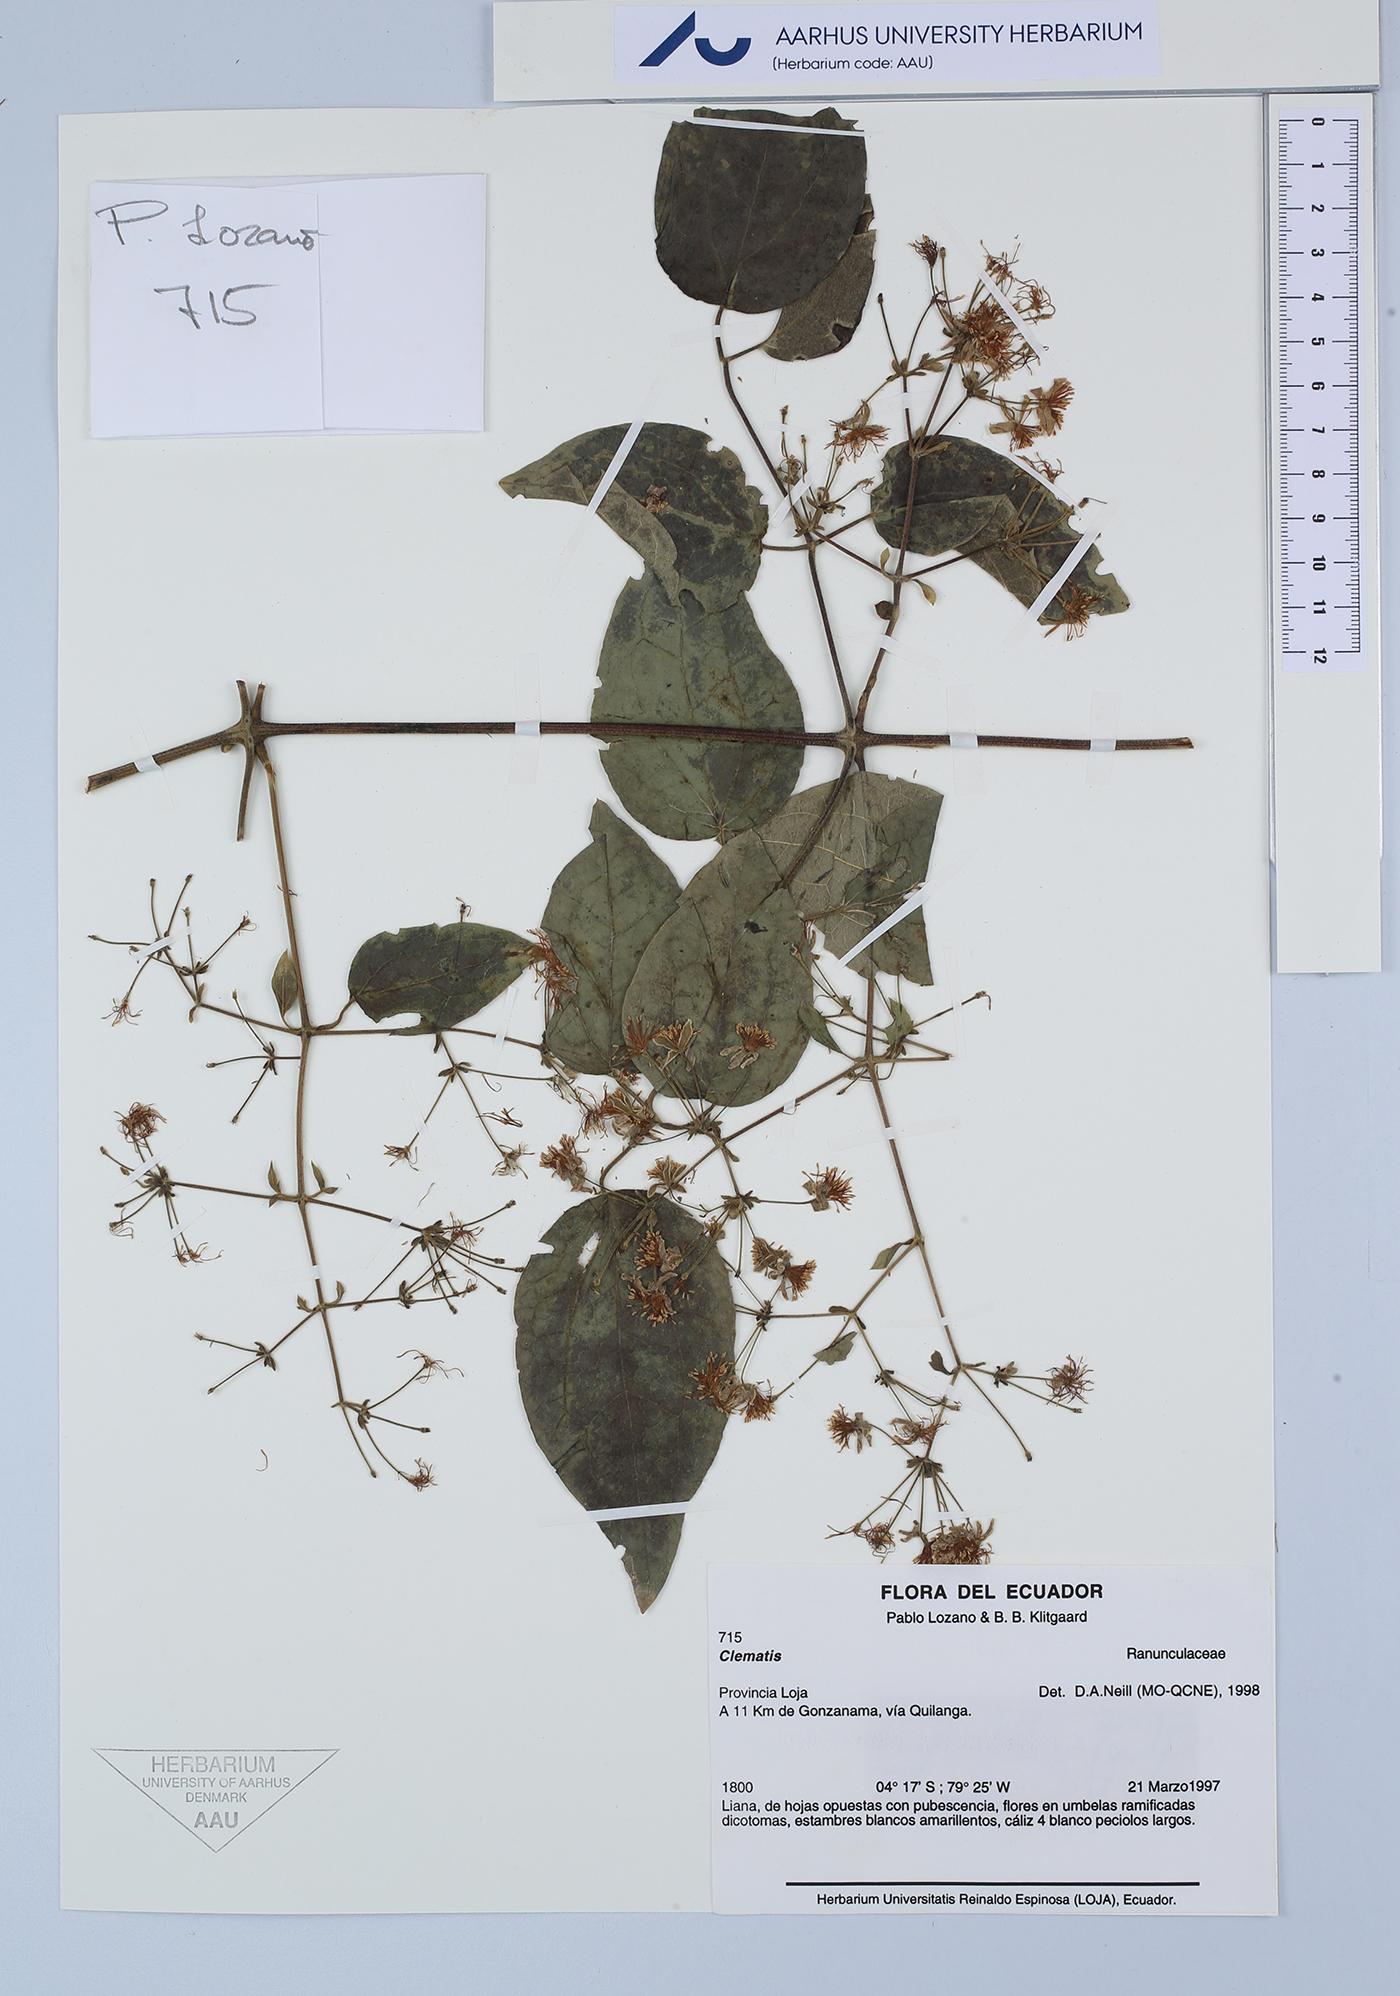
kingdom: Plantae
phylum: Tracheophyta
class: Magnoliopsida
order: Ranunculales
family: Ranunculaceae
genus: Clematis
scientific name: Clematis
